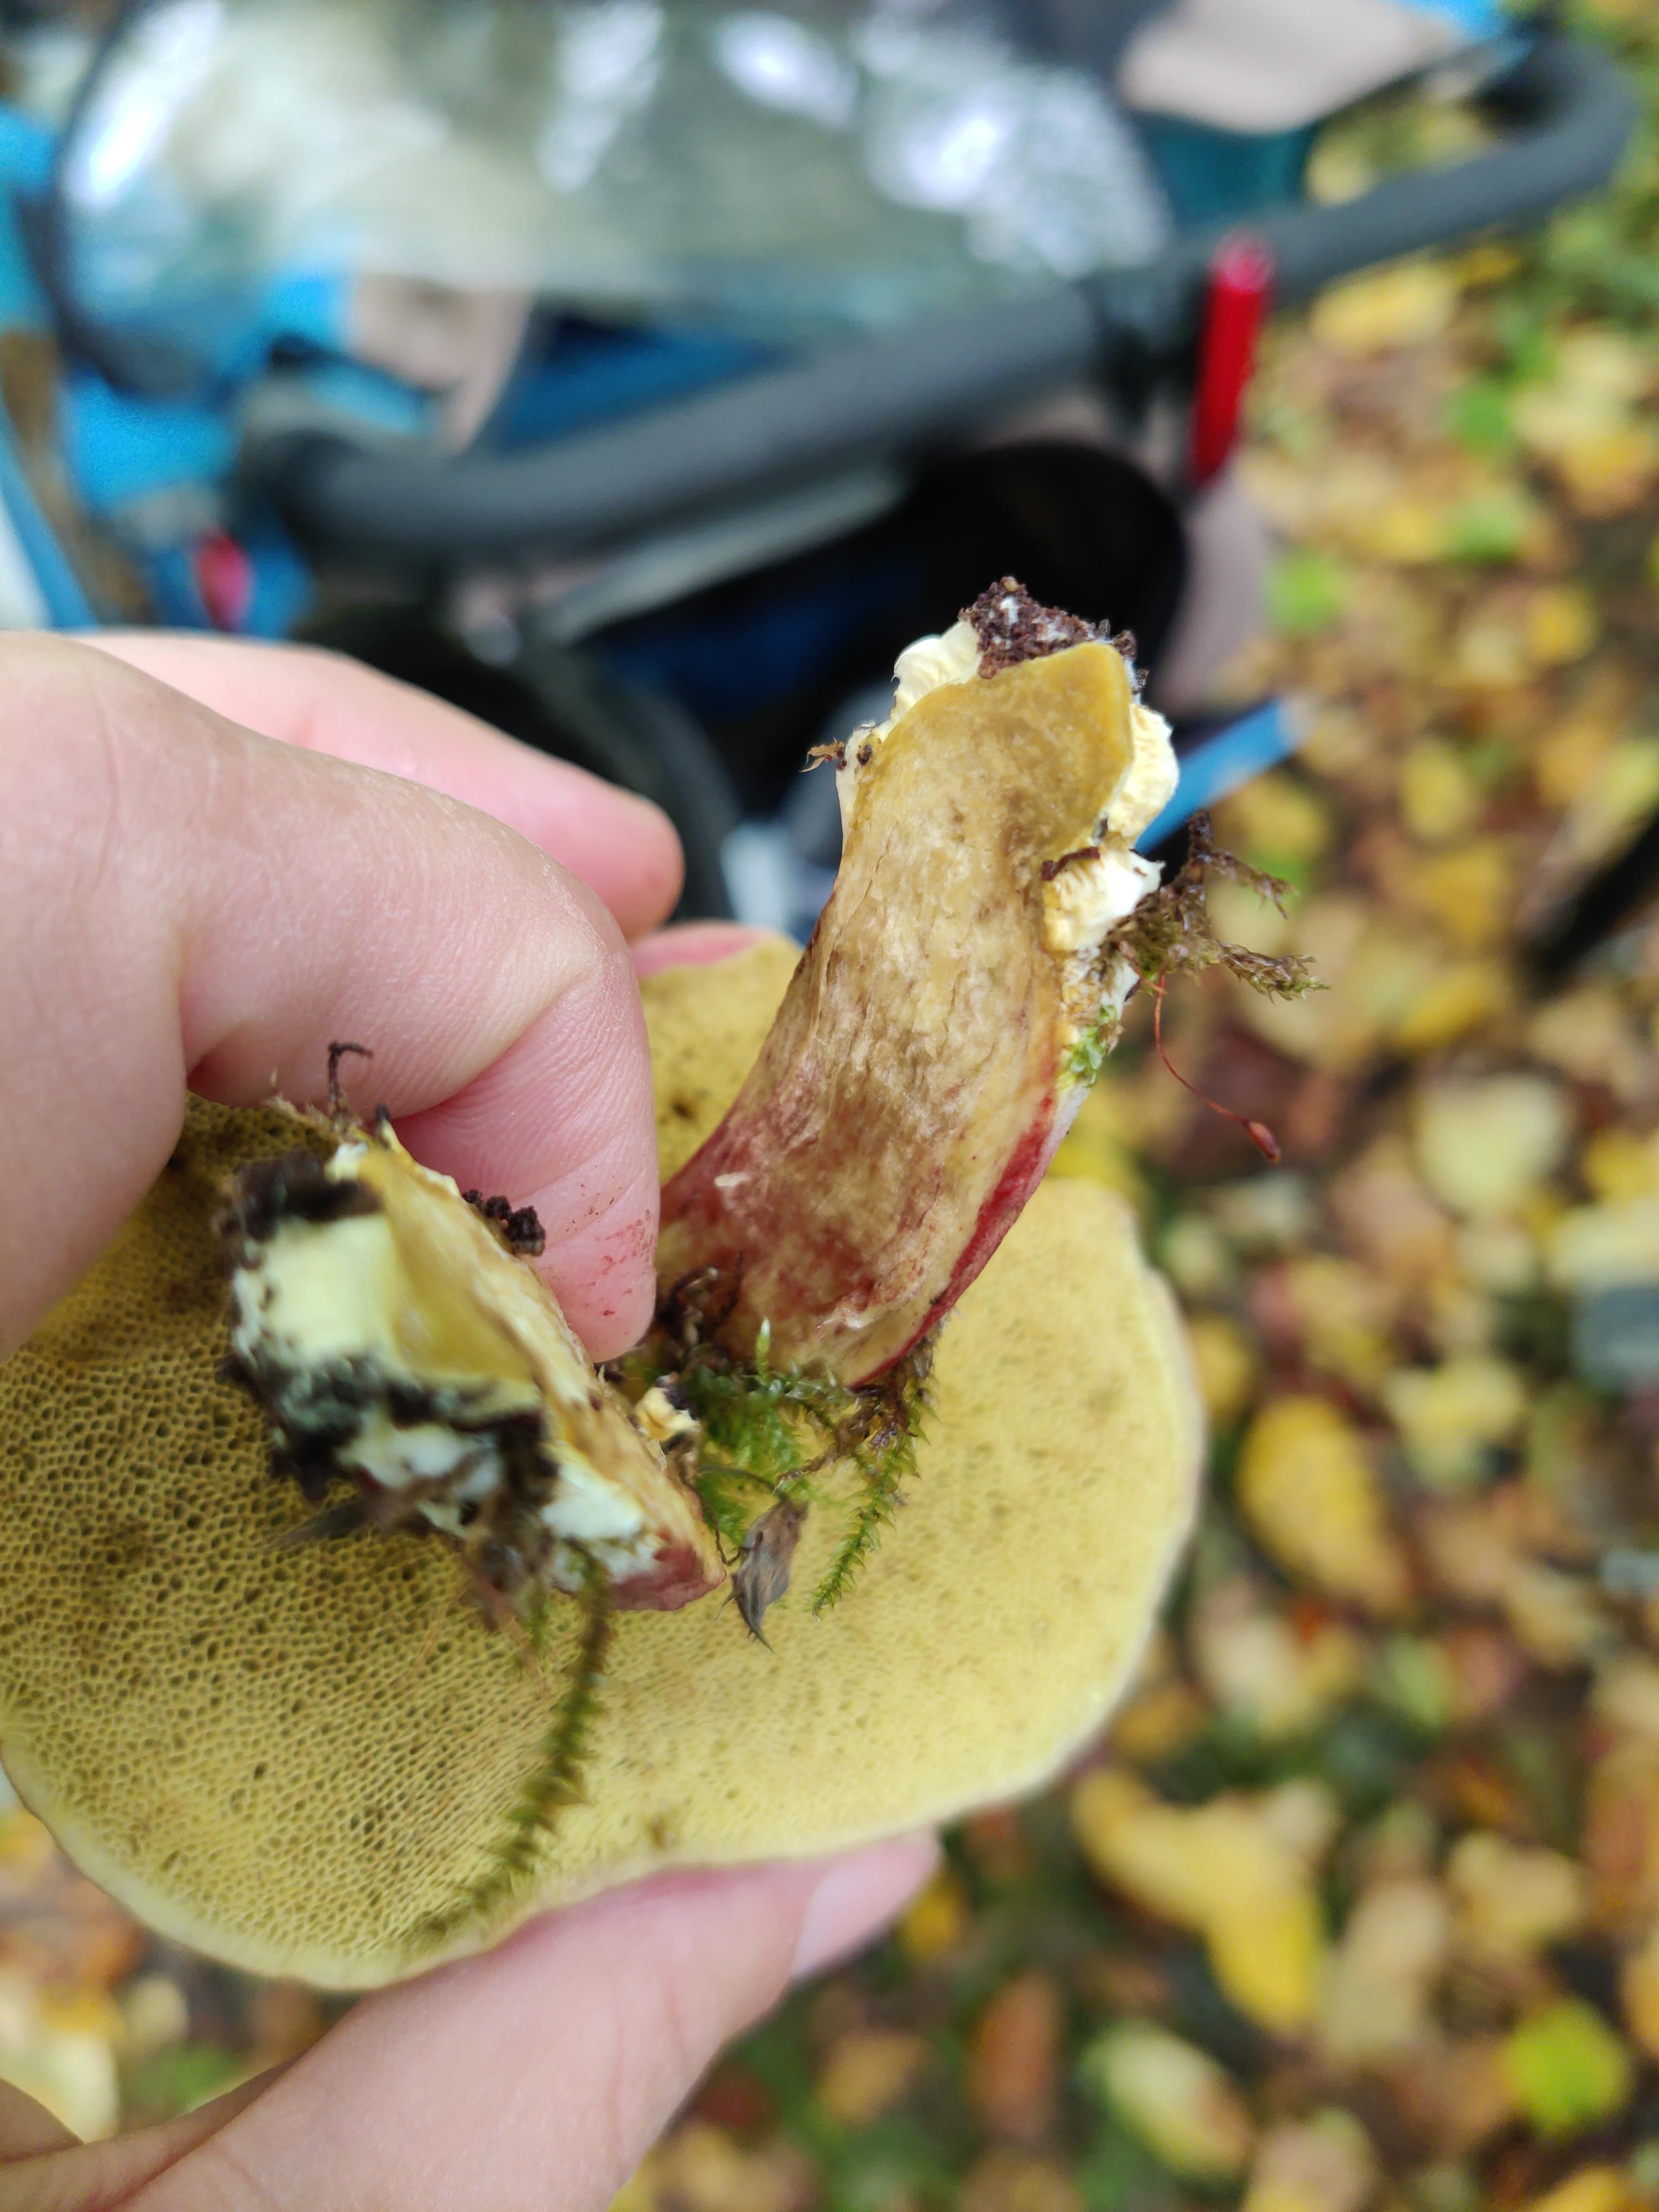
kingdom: Fungi
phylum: Basidiomycota
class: Agaricomycetes
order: Boletales
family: Boletaceae
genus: Xerocomellus
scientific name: Xerocomellus pruinatus
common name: dugget rørhat
